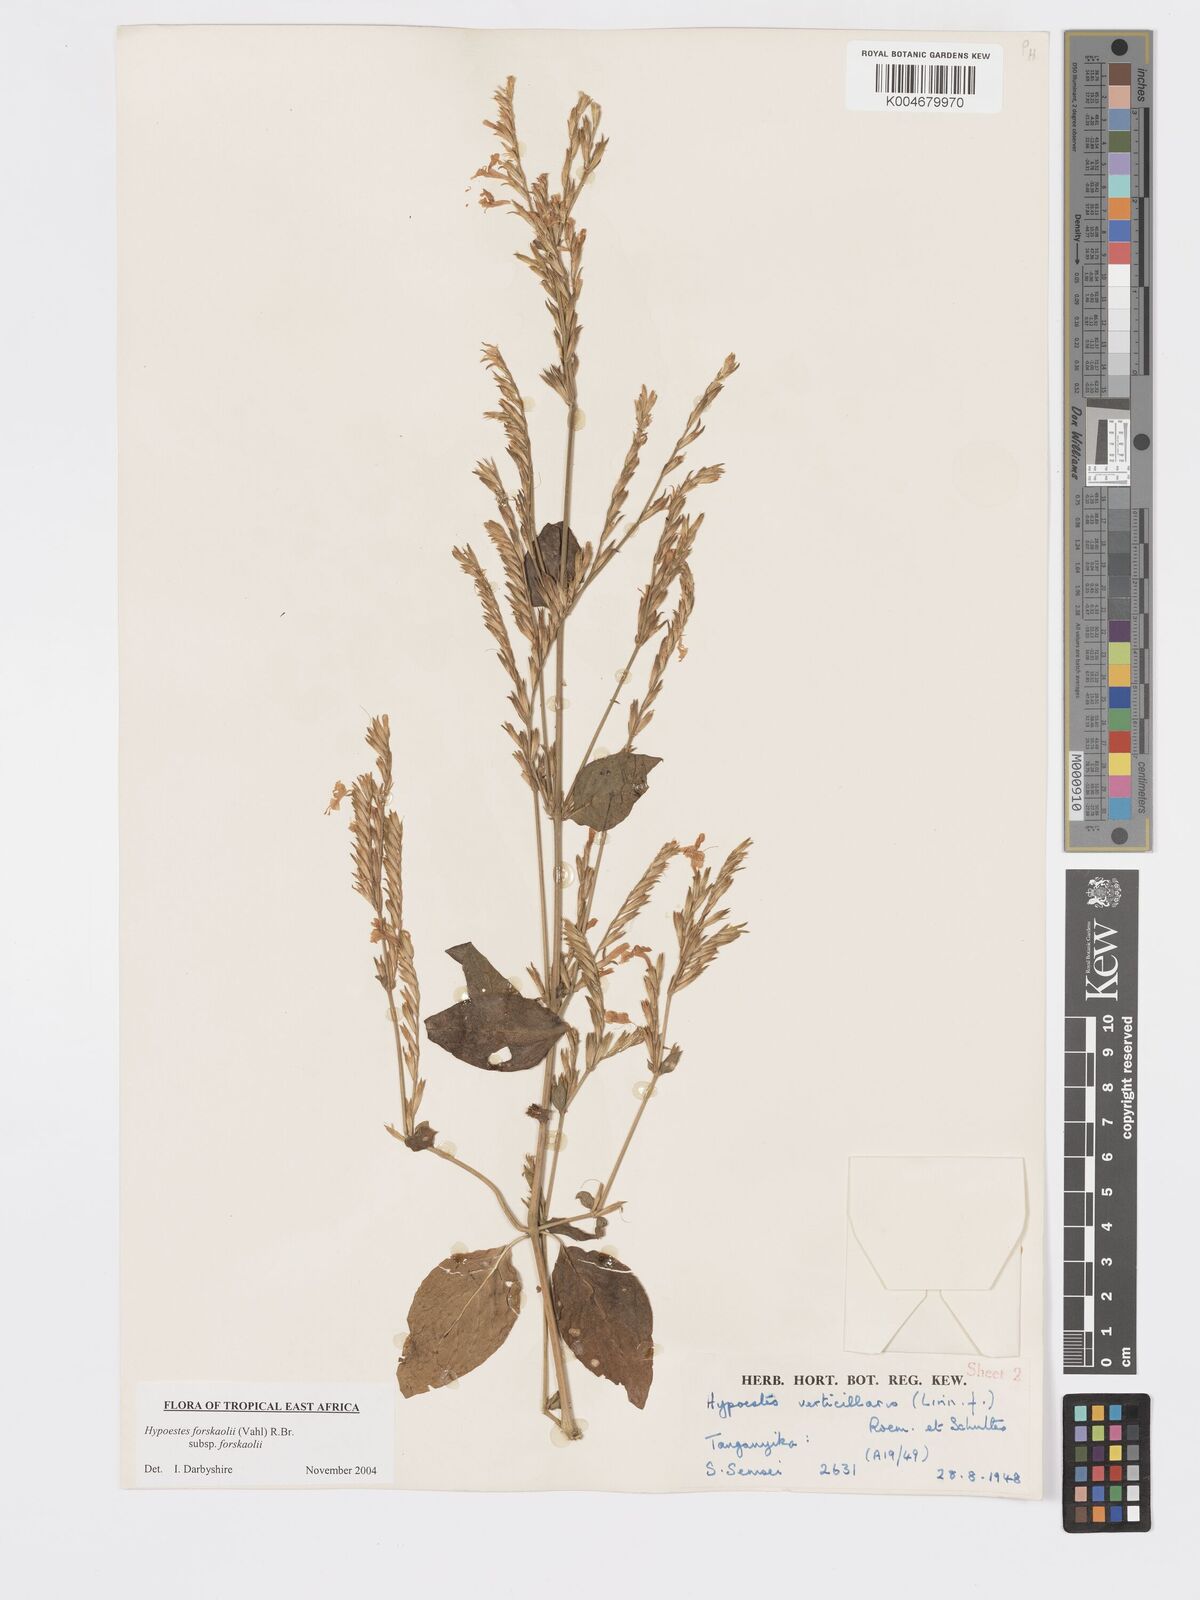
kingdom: Plantae
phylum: Tracheophyta
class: Magnoliopsida
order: Lamiales
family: Acanthaceae
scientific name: Acanthaceae
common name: Acanthaceae
